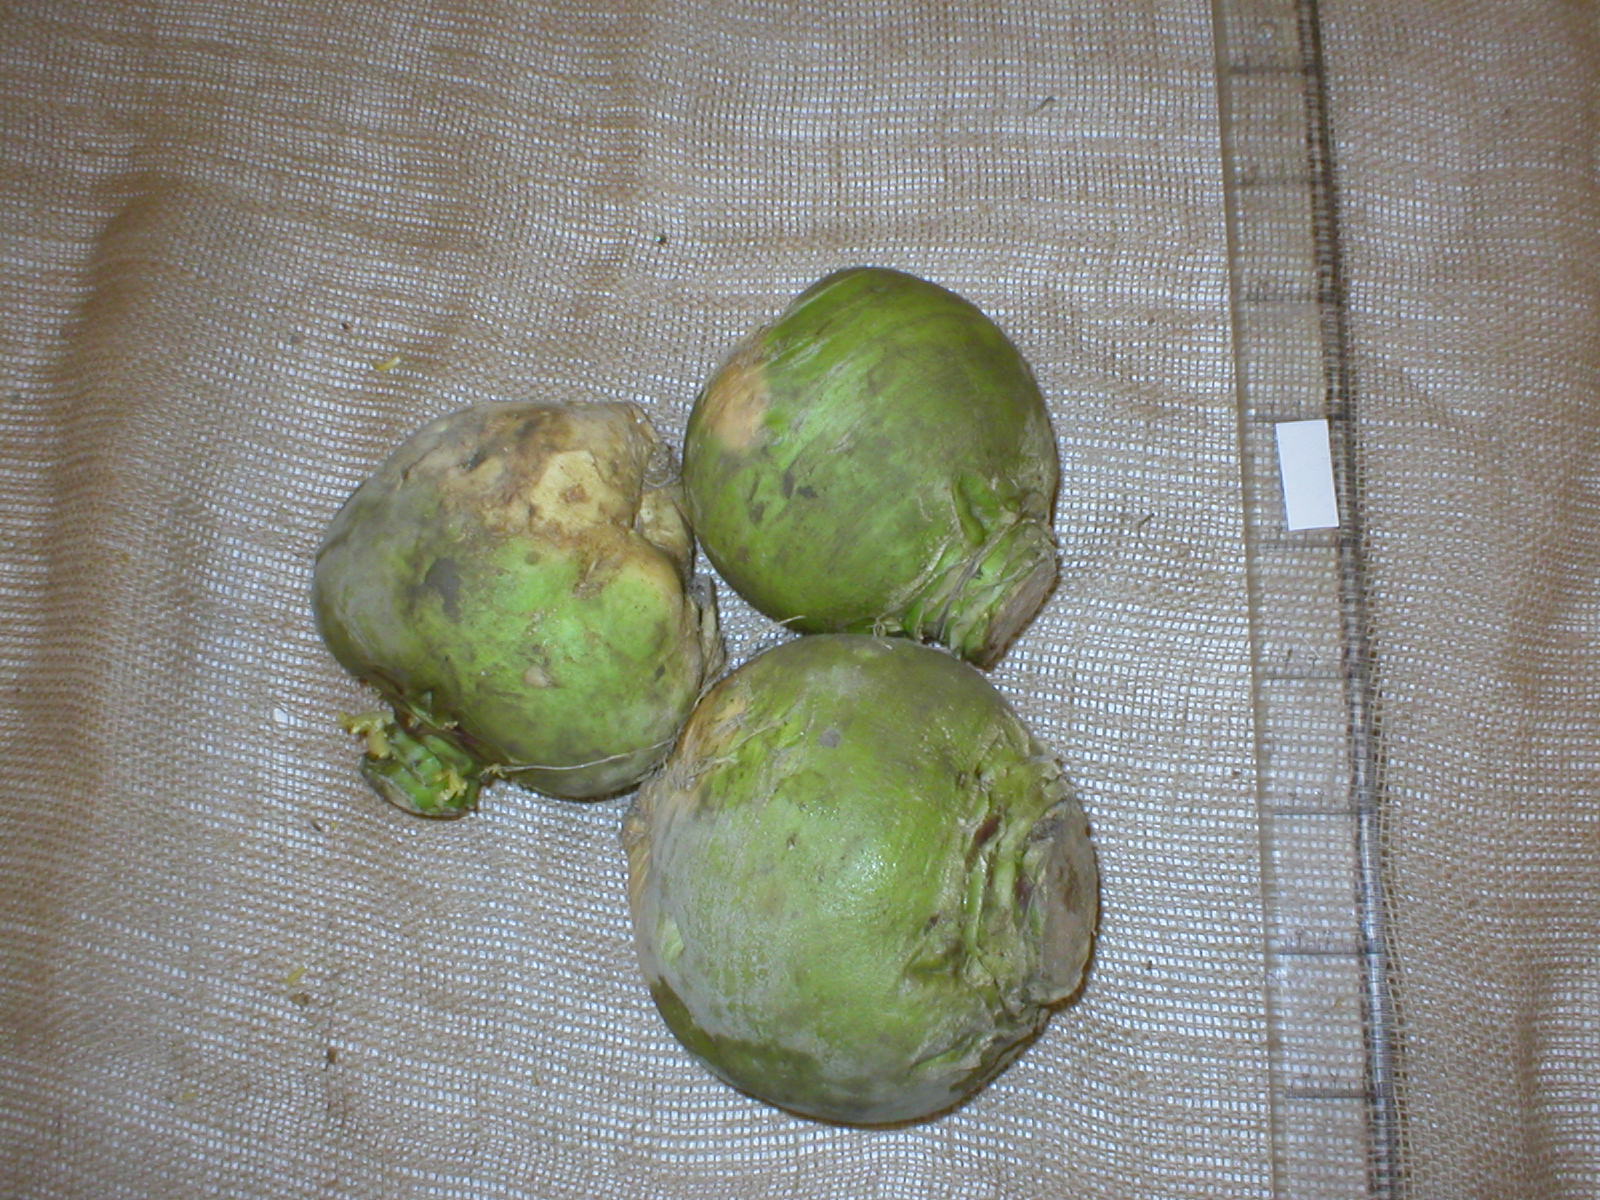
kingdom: Plantae
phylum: Tracheophyta
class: Magnoliopsida
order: Brassicales
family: Brassicaceae
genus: Brassica
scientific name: Brassica napus
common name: Rape
